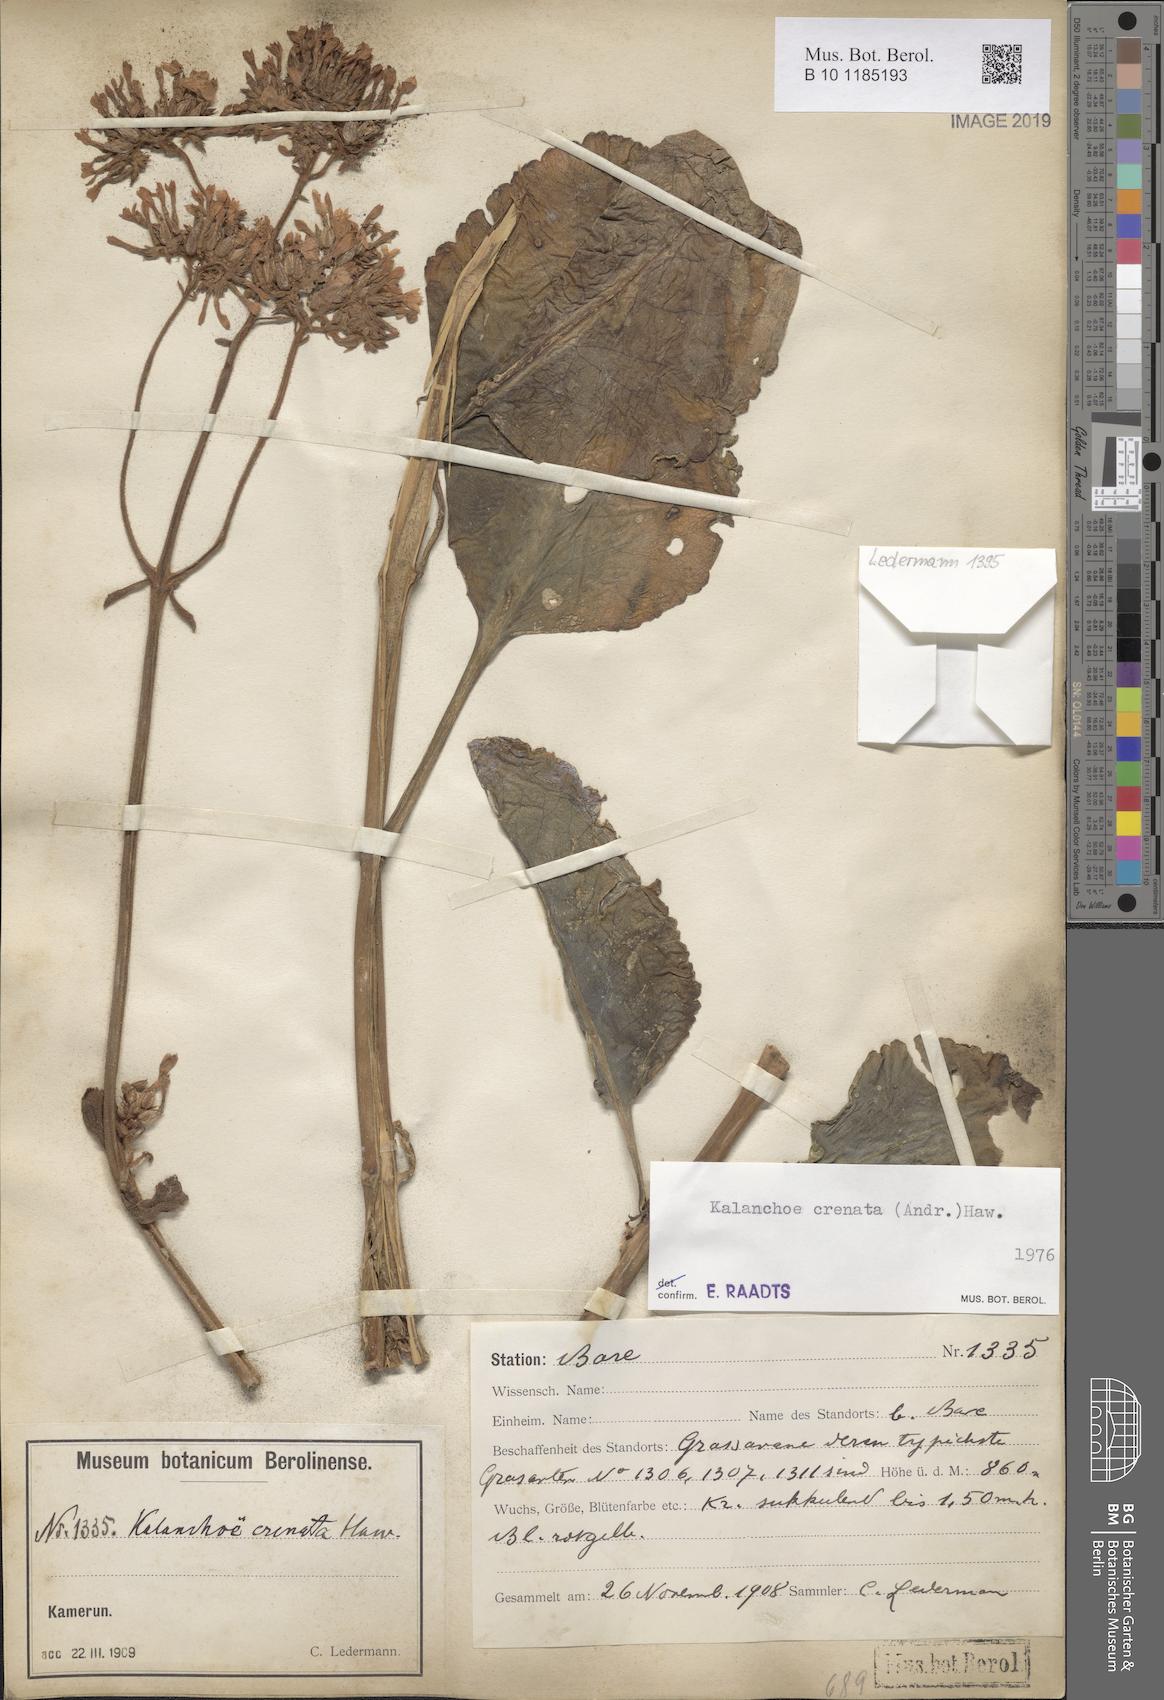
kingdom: Plantae
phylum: Tracheophyta
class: Magnoliopsida
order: Saxifragales
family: Crassulaceae
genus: Kalanchoe
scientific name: Kalanchoe crenata
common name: Neverdie
